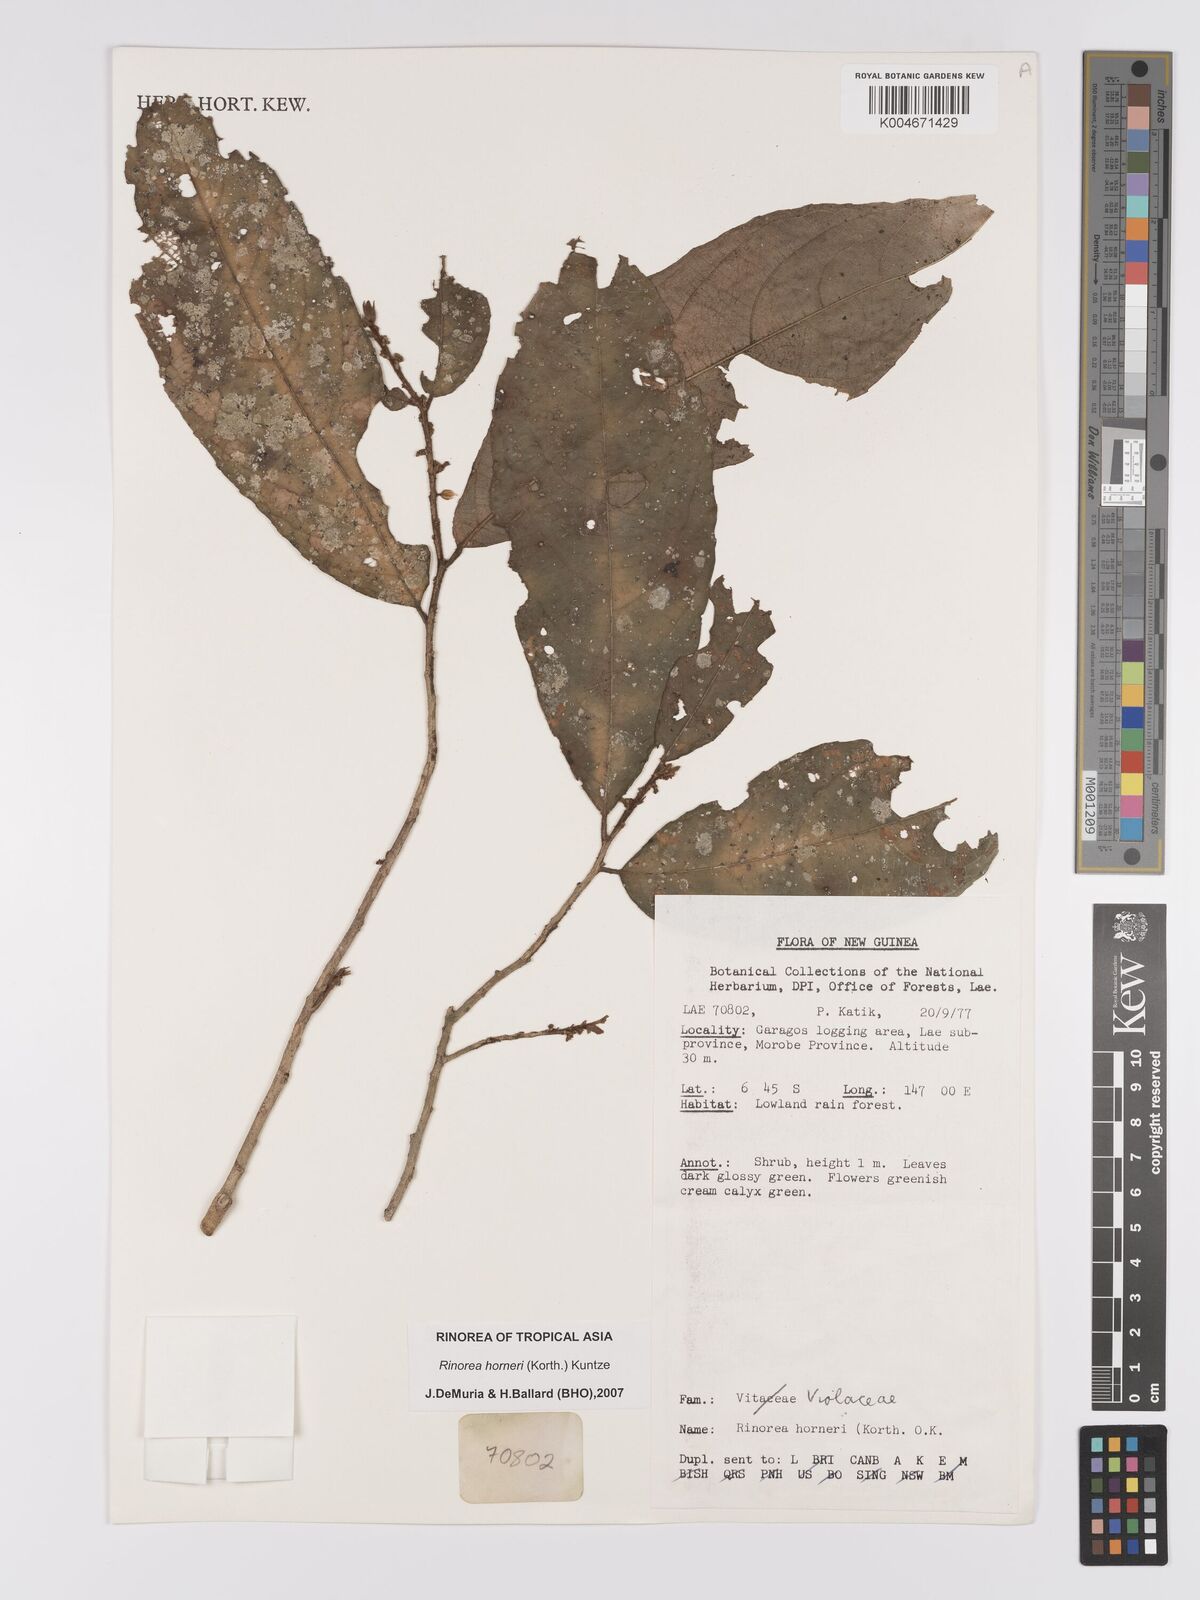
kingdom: Plantae
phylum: Tracheophyta
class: Magnoliopsida
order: Malpighiales
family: Violaceae
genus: Rinorea
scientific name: Rinorea horneri
